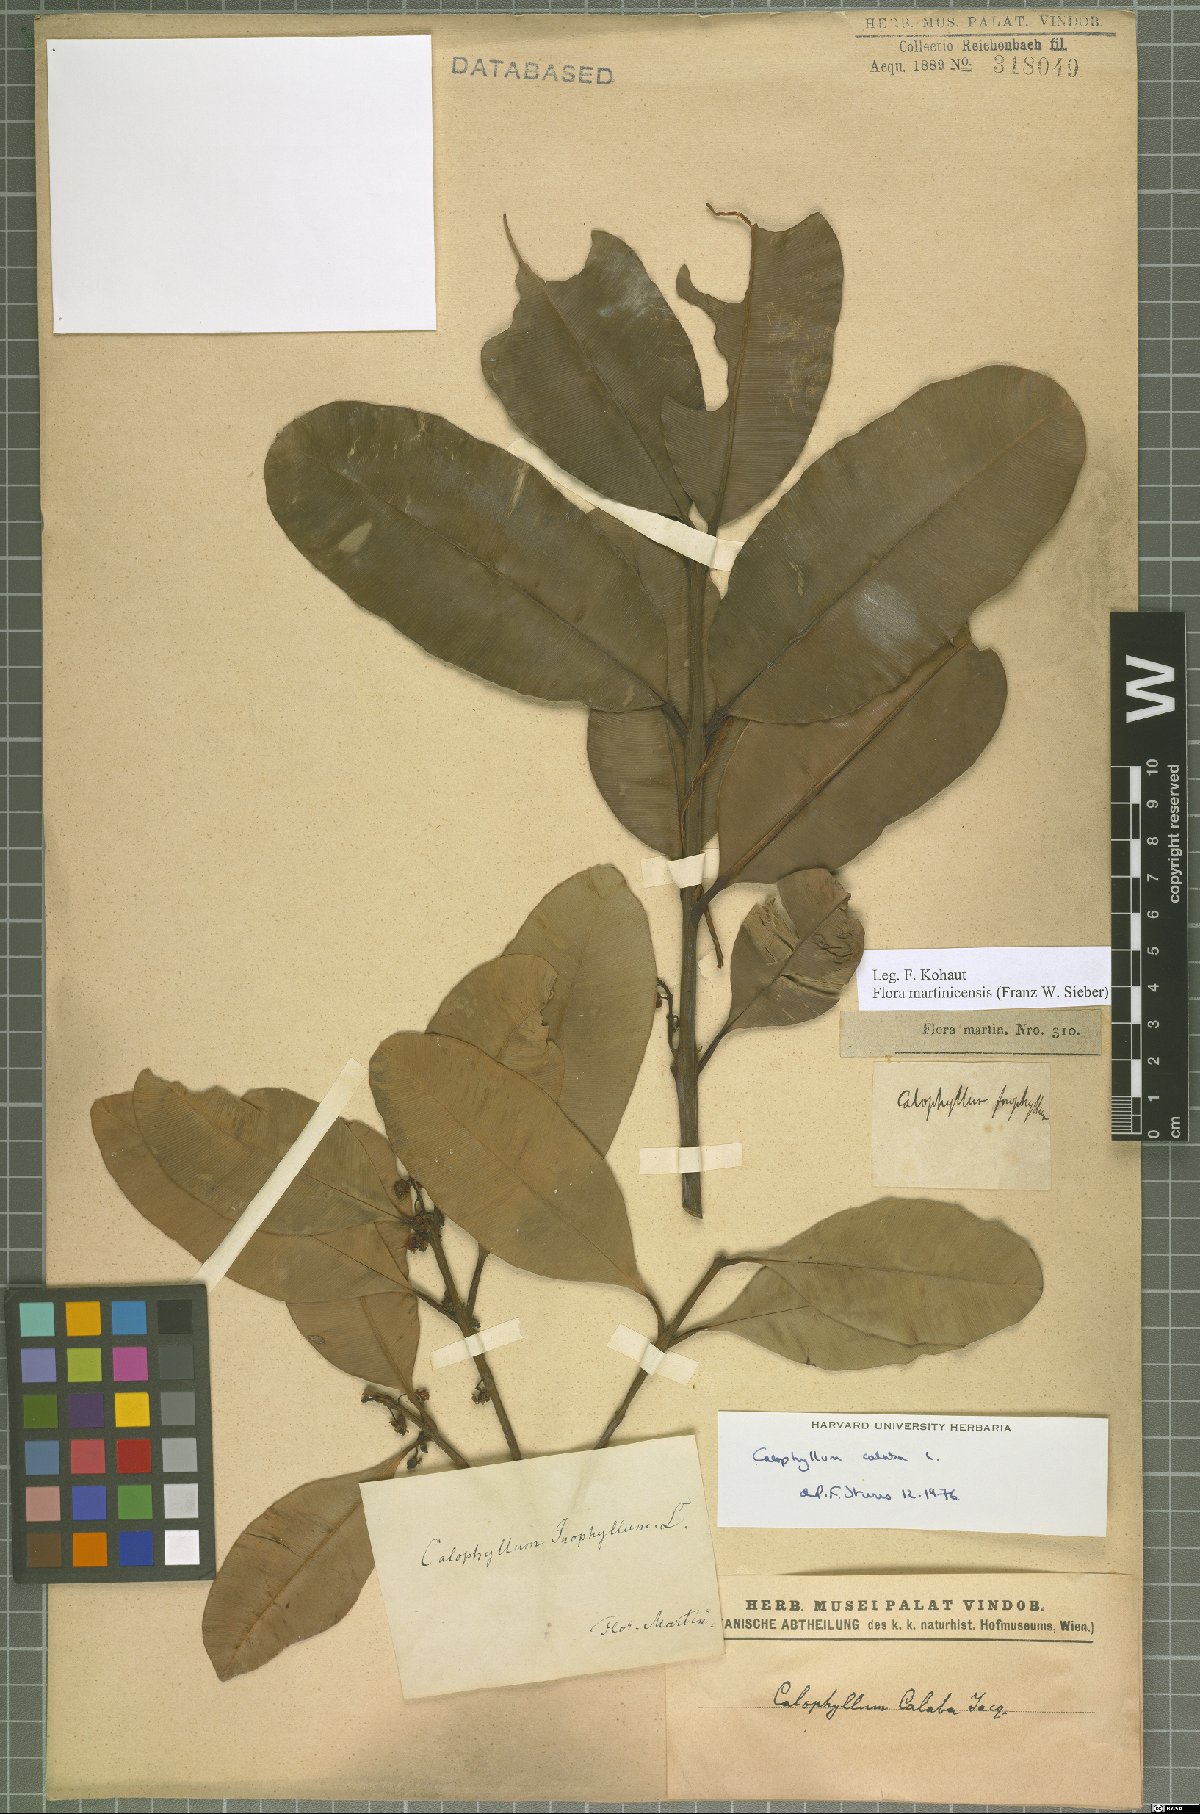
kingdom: Plantae
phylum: Tracheophyta
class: Magnoliopsida
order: Malpighiales
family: Calophyllaceae
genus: Calophyllum
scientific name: Calophyllum calaba
